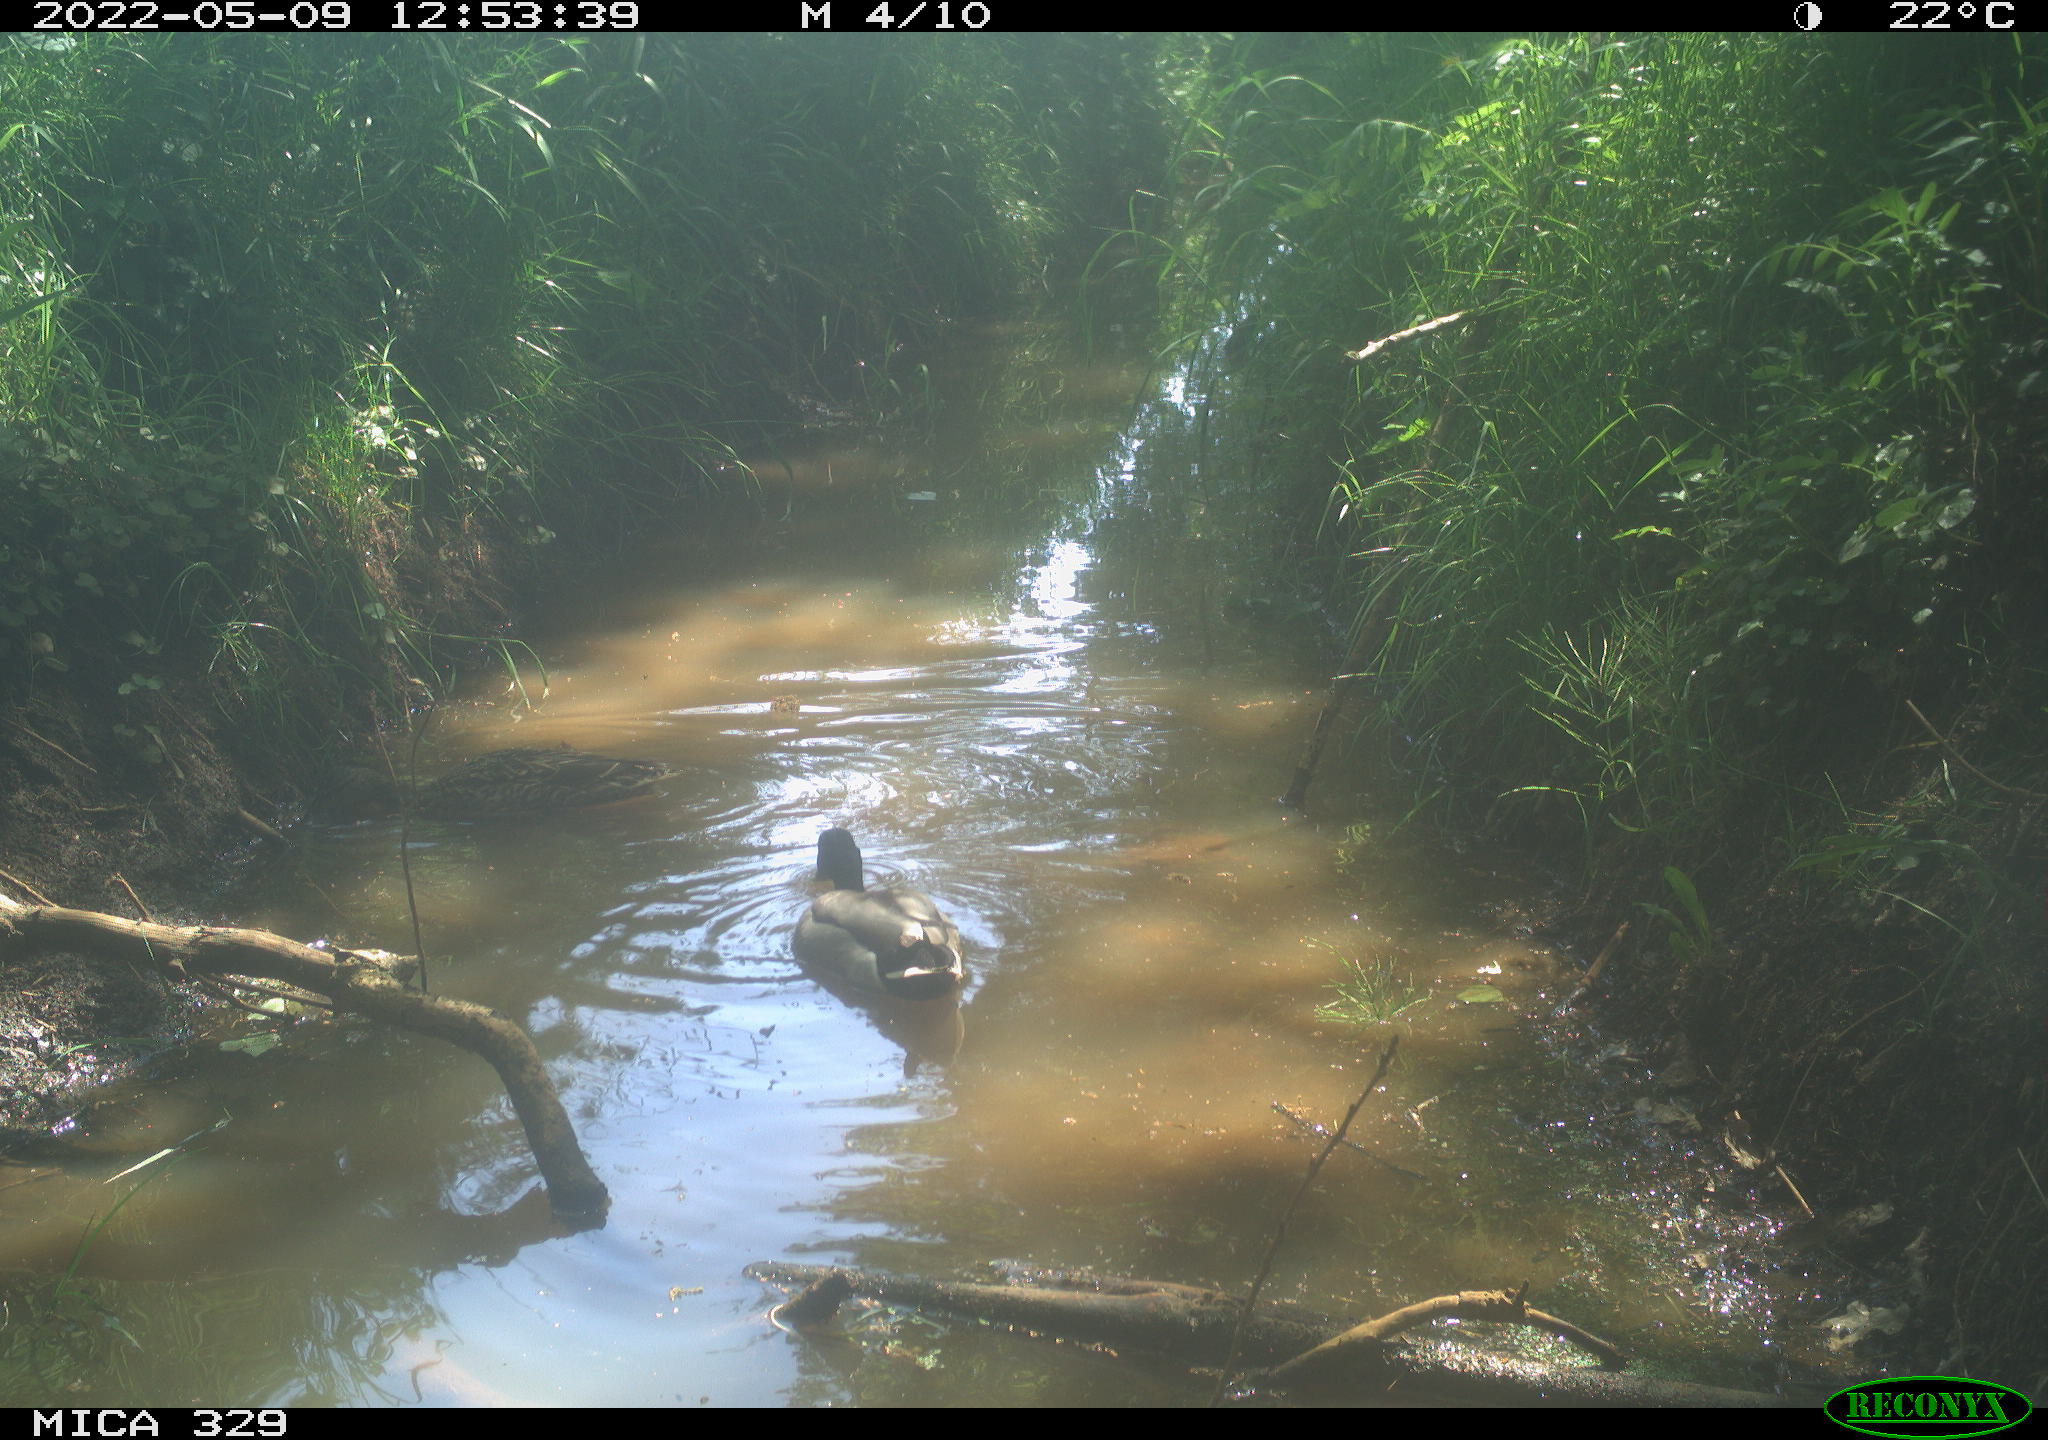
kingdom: Animalia
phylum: Chordata
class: Aves
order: Anseriformes
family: Anatidae
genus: Anas
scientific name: Anas platyrhynchos
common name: Mallard
